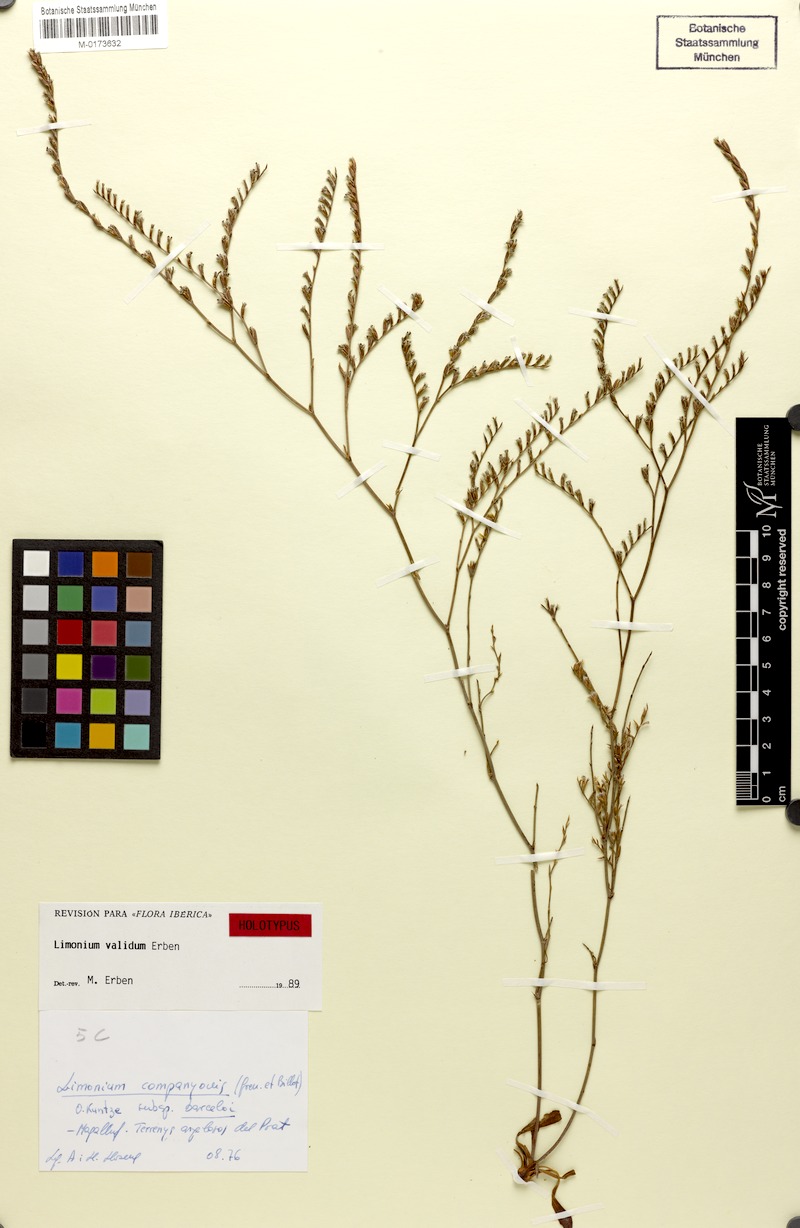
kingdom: Plantae
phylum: Tracheophyta
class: Magnoliopsida
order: Caryophyllales
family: Plumbaginaceae
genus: Limonium
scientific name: Limonium validum
